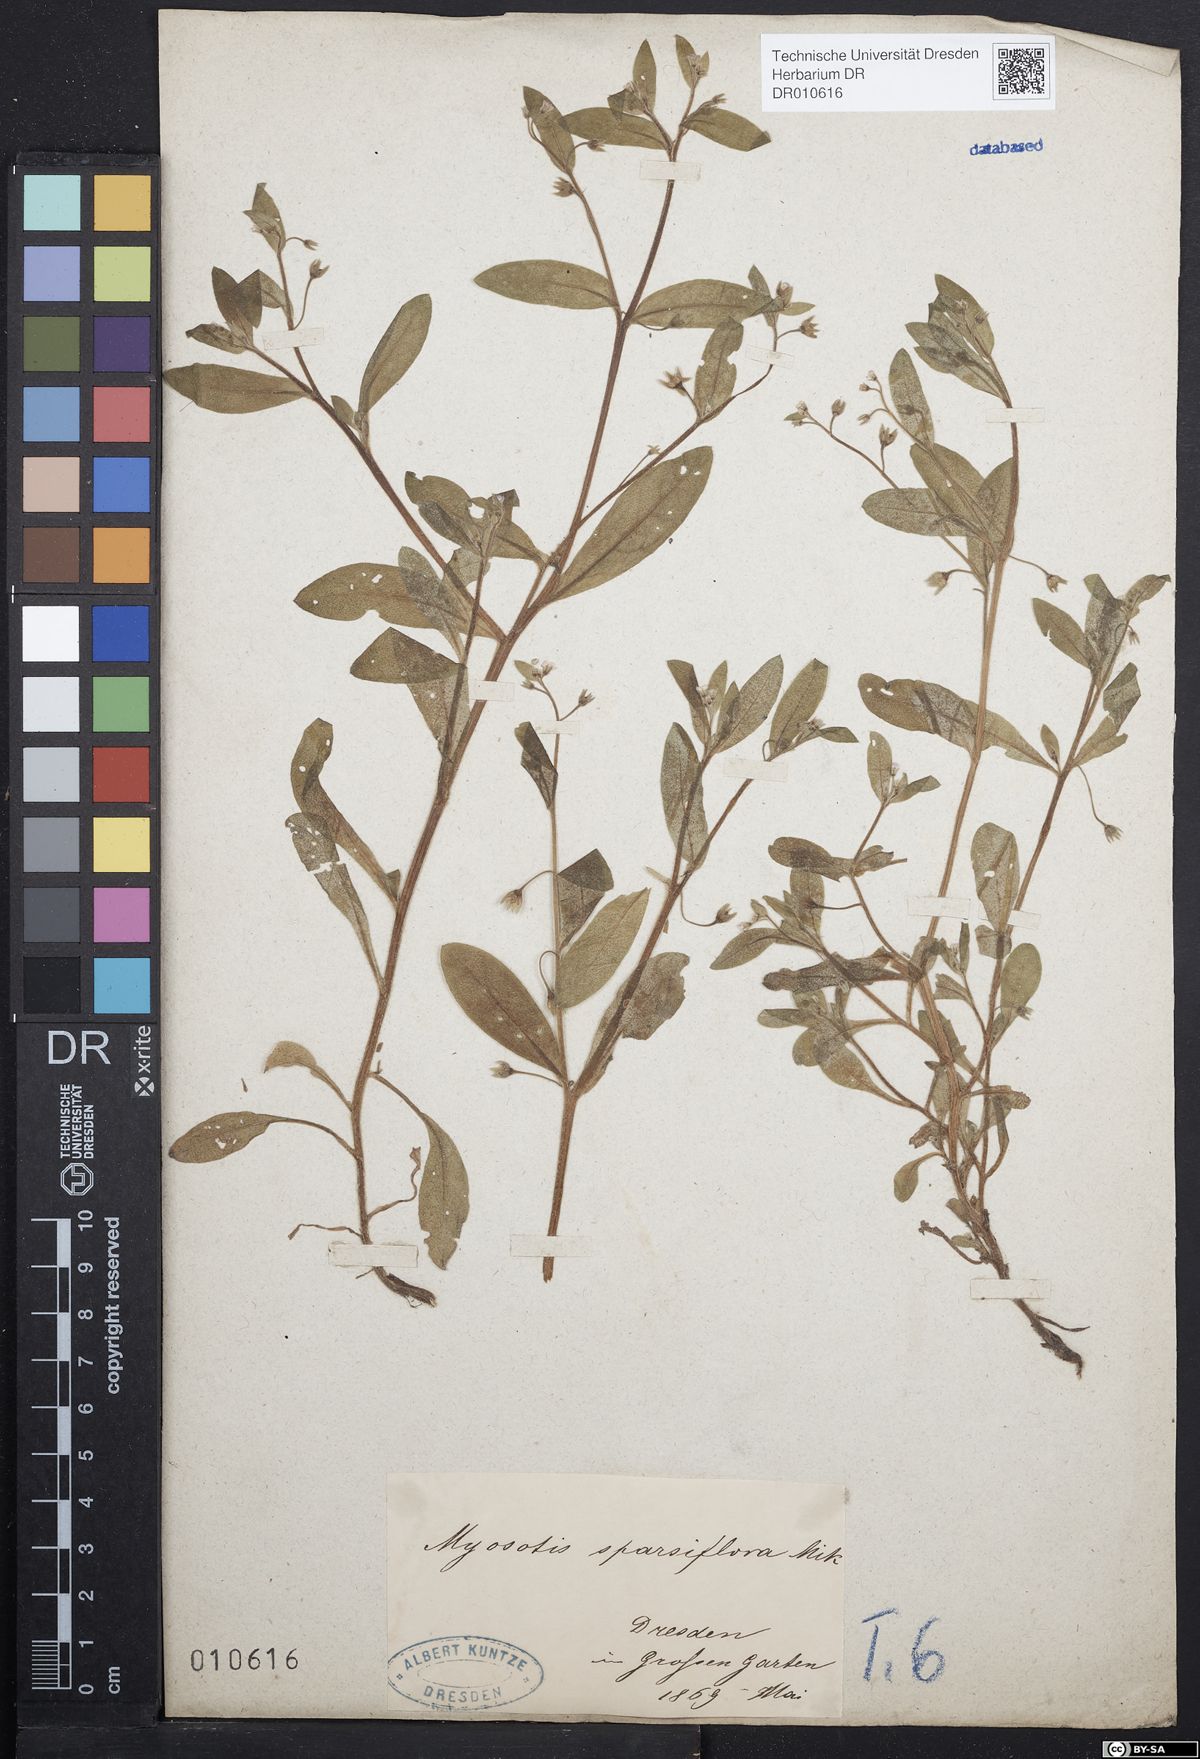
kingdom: Plantae
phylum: Tracheophyta
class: Magnoliopsida
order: Boraginales
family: Boraginaceae
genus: Myosotis
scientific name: Myosotis sparsiflora
